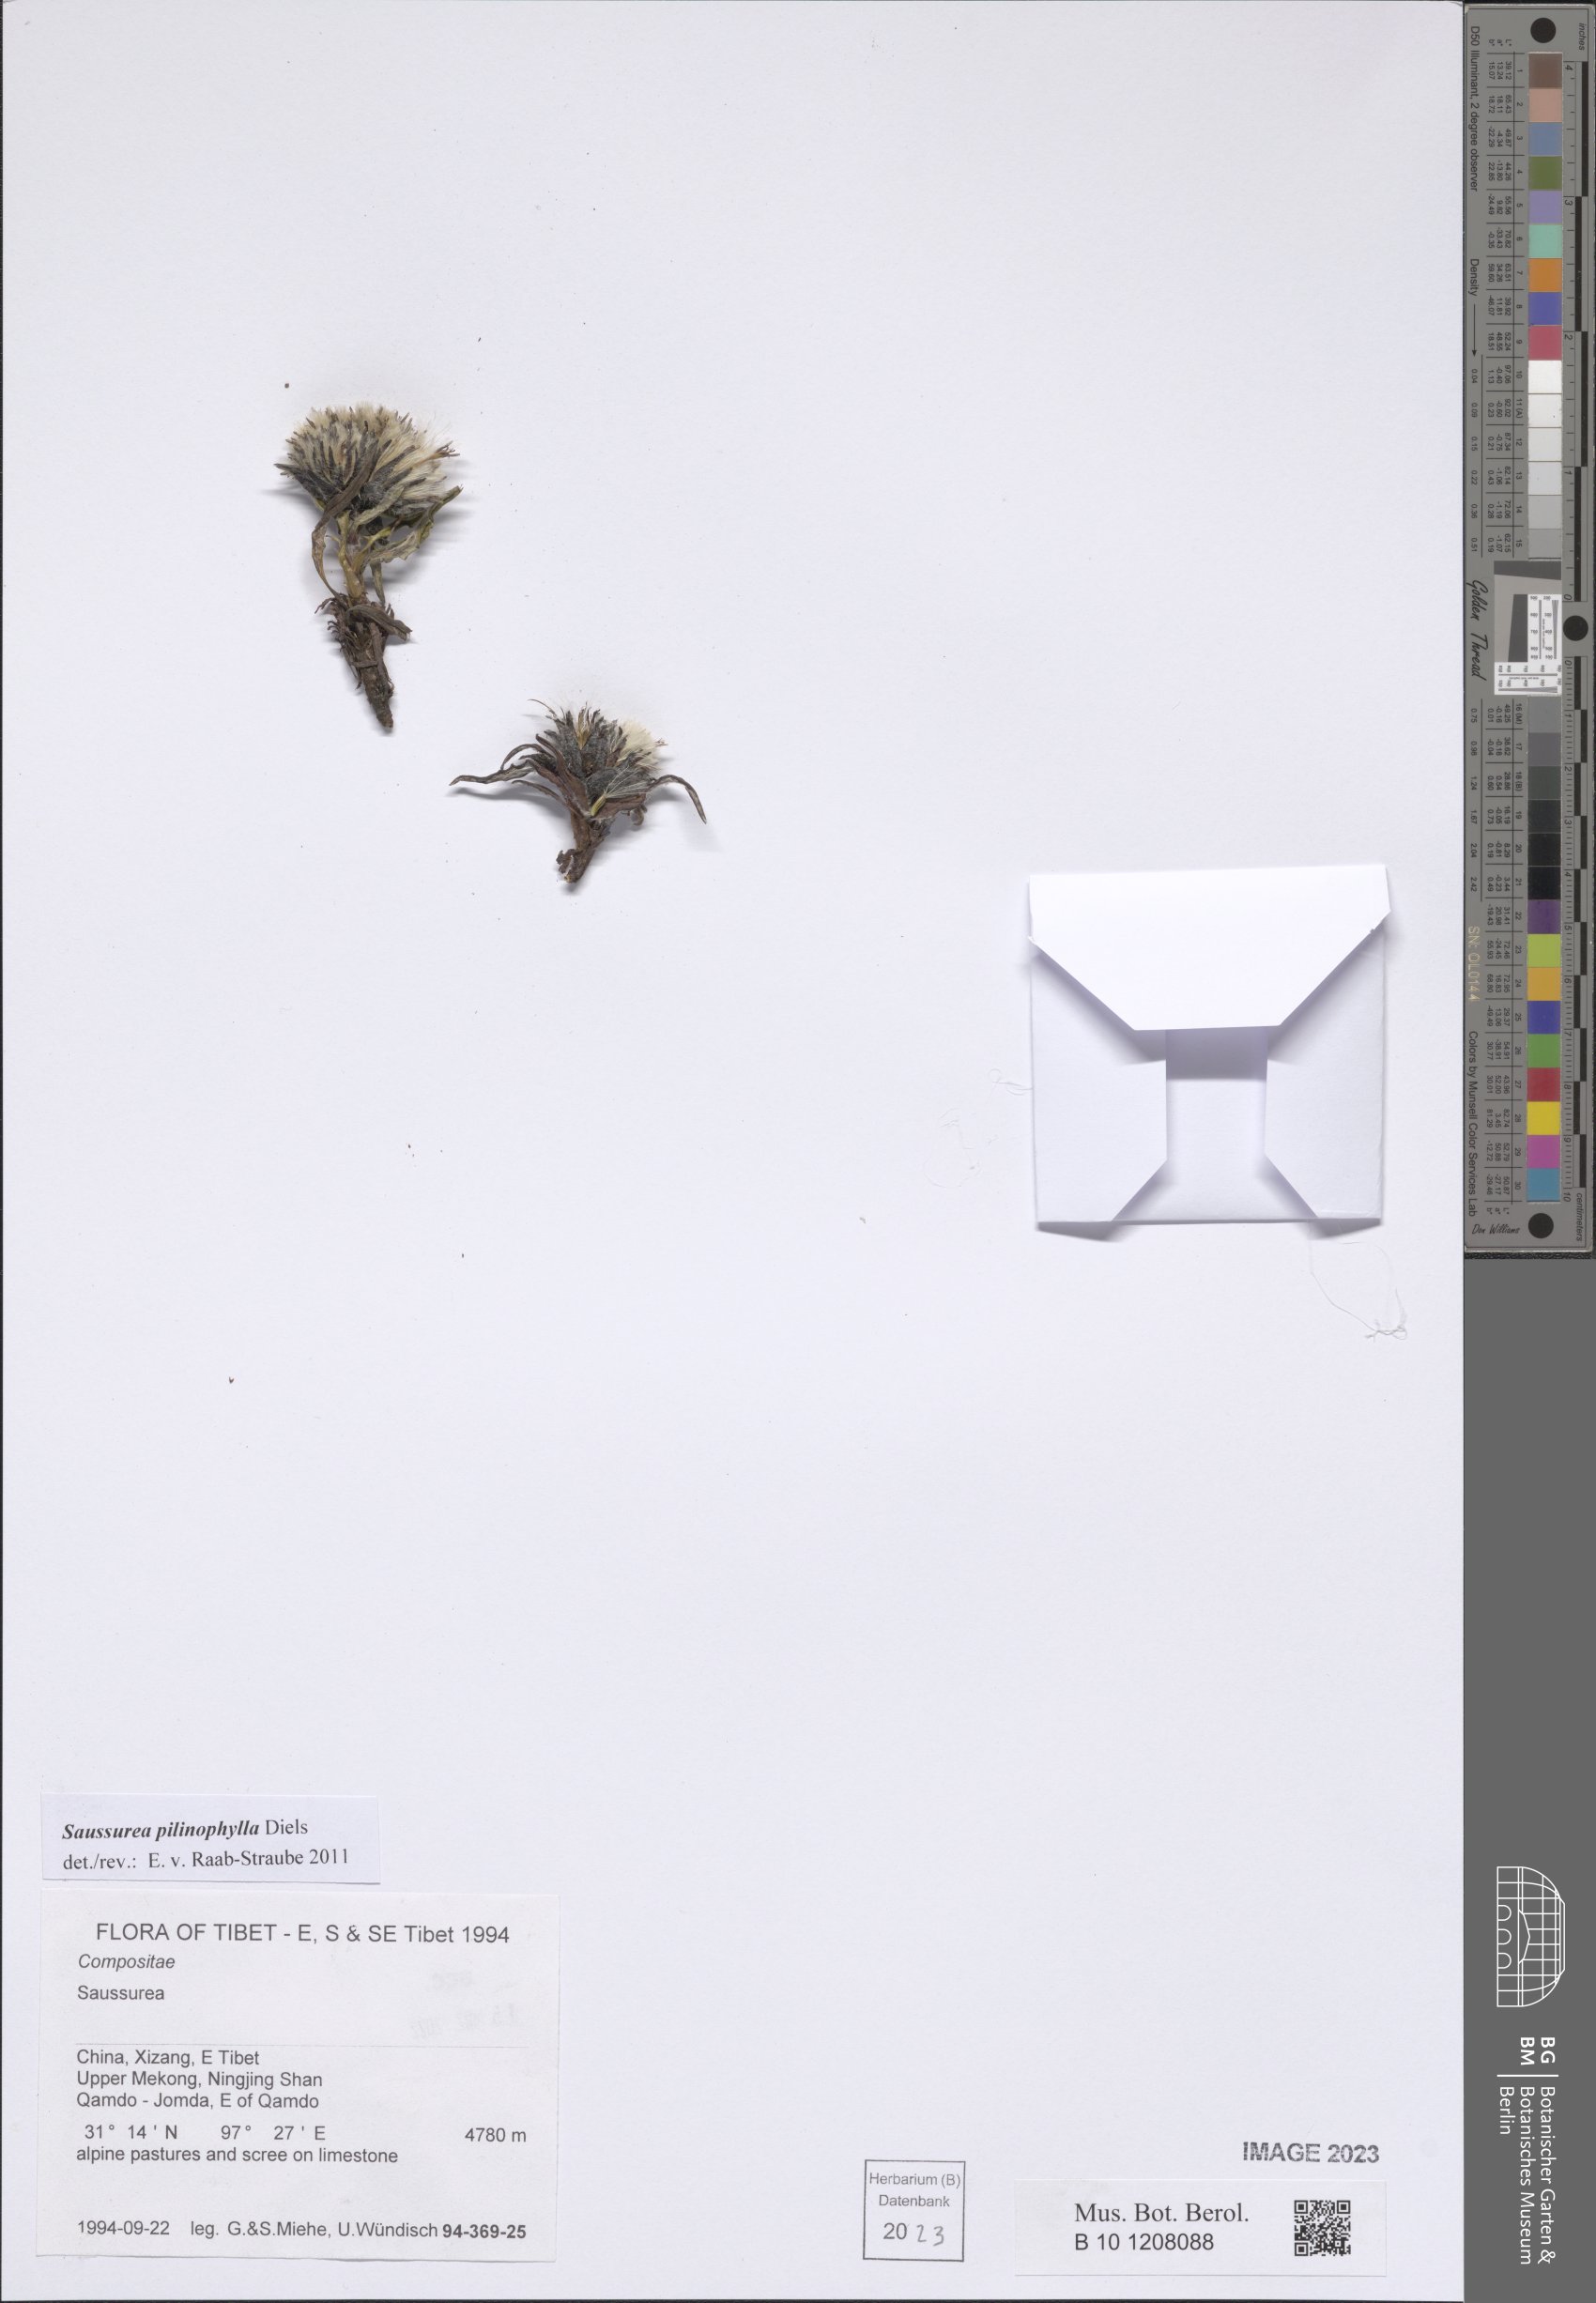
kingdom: Plantae
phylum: Tracheophyta
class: Magnoliopsida
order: Asterales
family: Asteraceae
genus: Saussurea
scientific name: Saussurea pilinophylla
